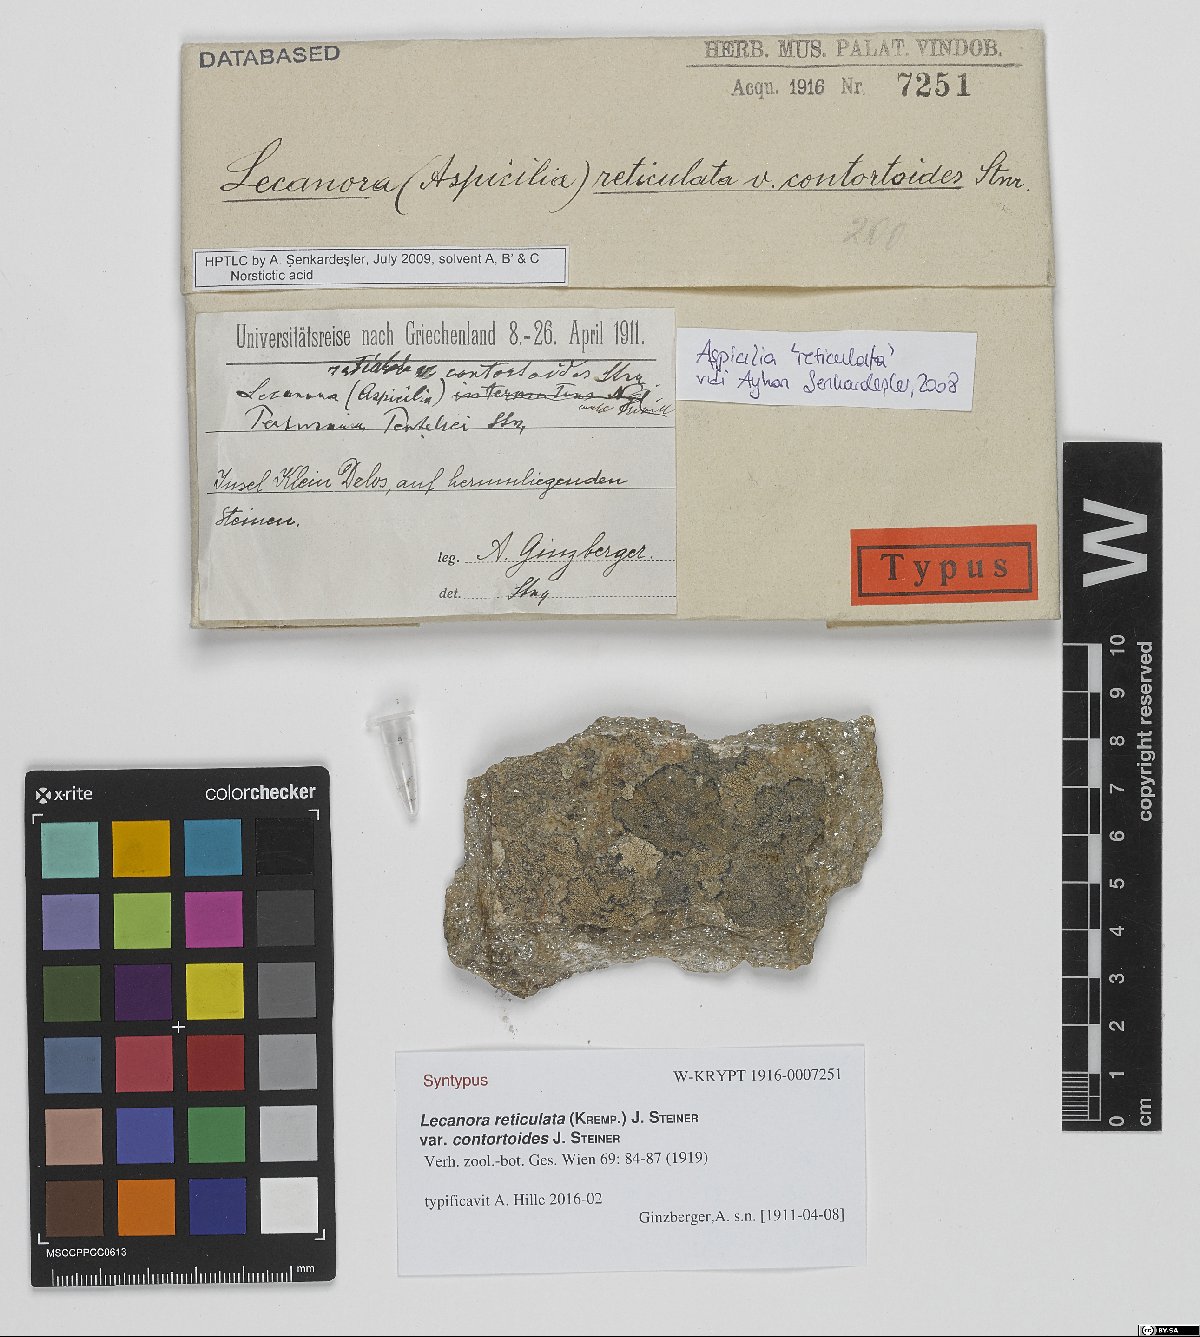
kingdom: Fungi
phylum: Ascomycota
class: Lecanoromycetes
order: Lecanorales
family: Lecanoraceae
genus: Lecanora
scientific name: Lecanora reticulata
